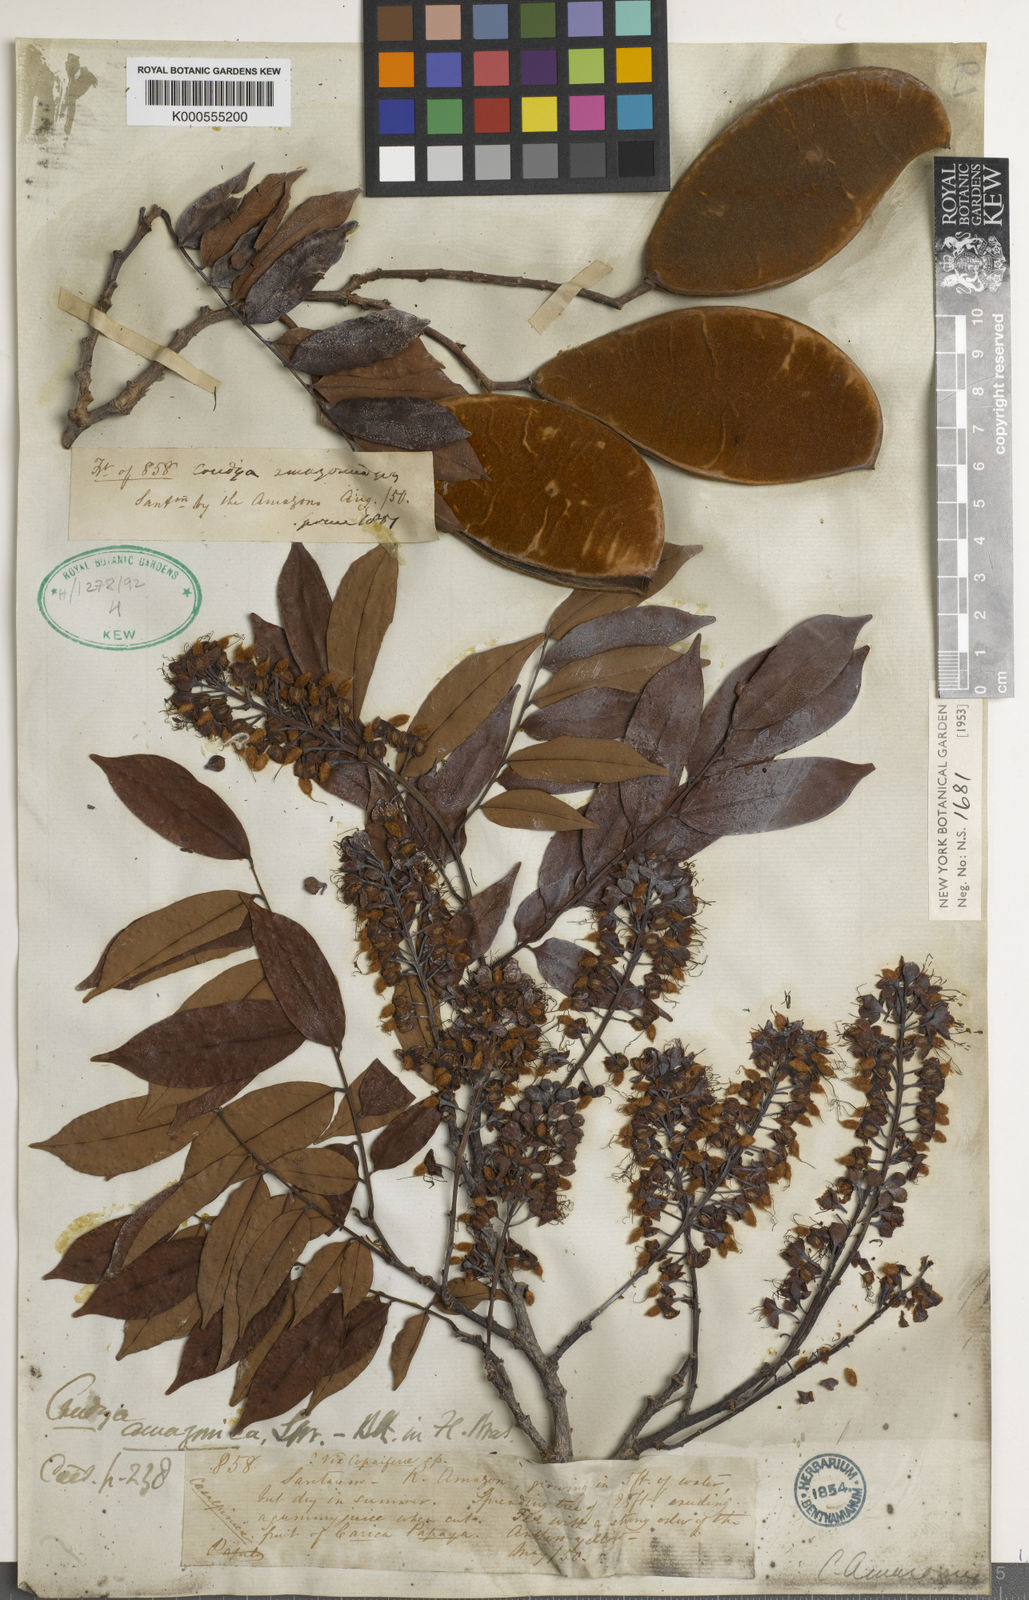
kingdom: Plantae
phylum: Tracheophyta
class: Magnoliopsida
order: Fabales
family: Fabaceae
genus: Crudia
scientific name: Crudia amazonica
